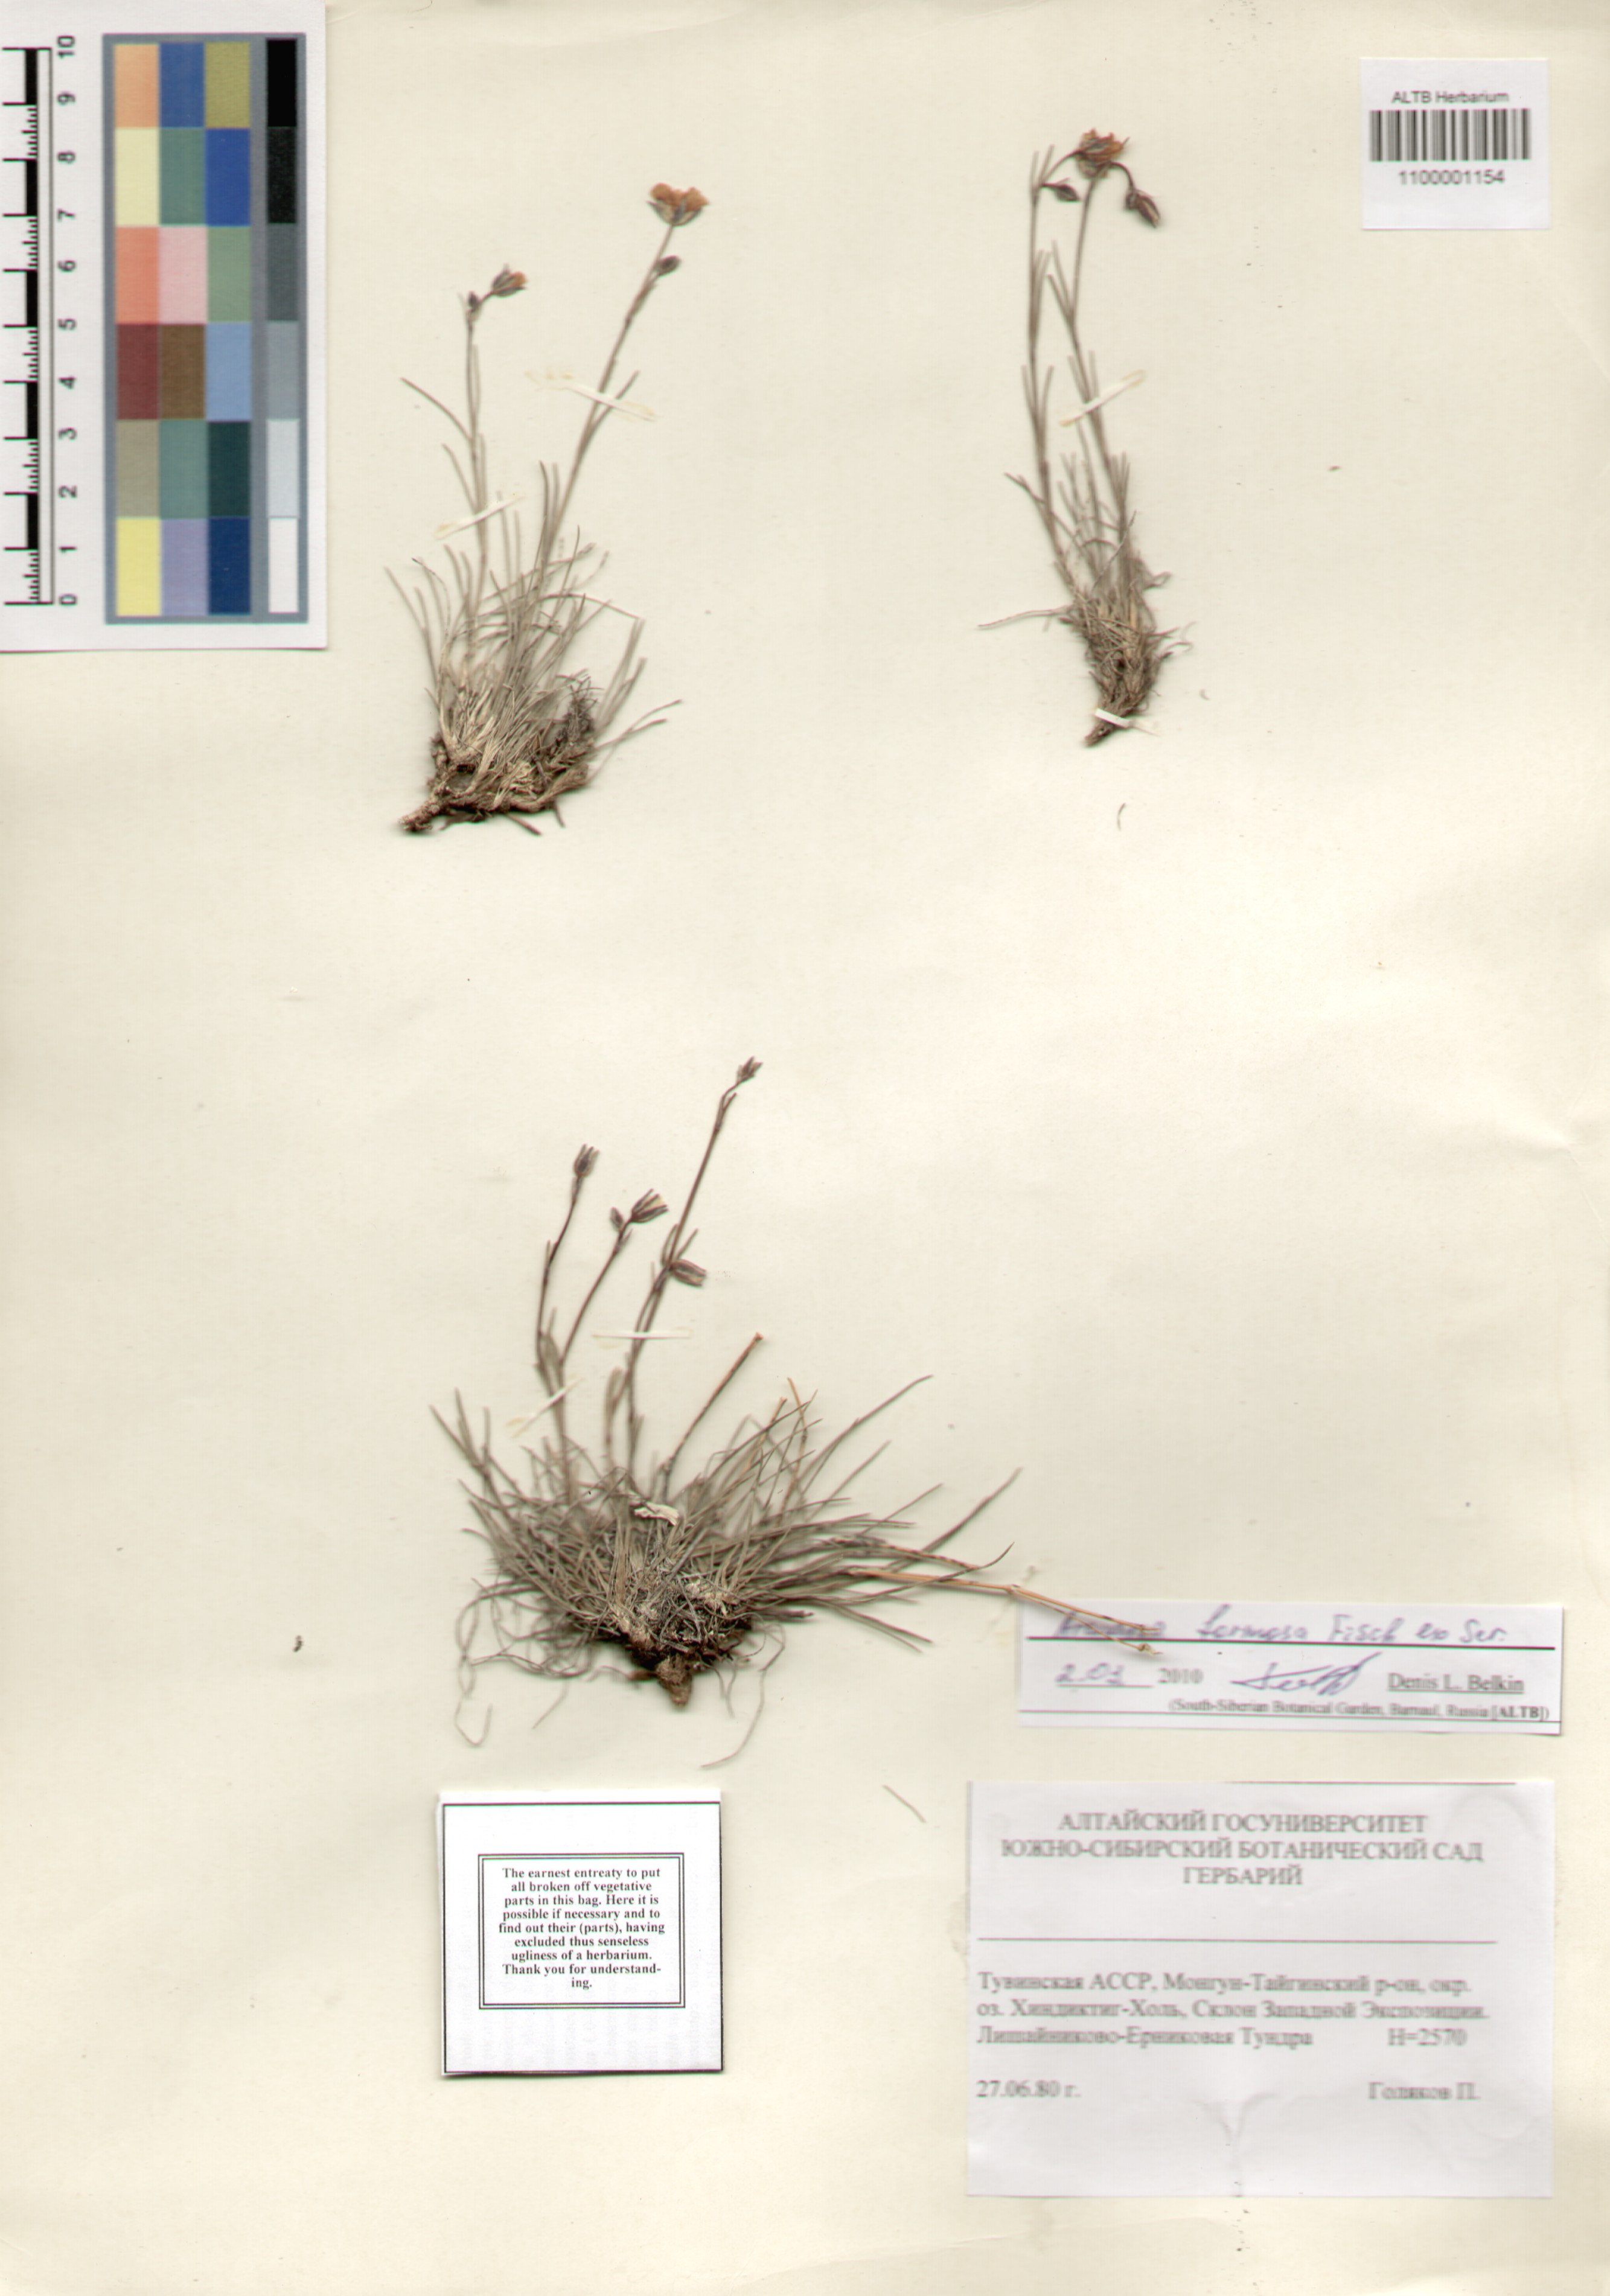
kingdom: Plantae
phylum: Tracheophyta
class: Magnoliopsida
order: Caryophyllales
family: Caryophyllaceae
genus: Eremogone
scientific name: Eremogone formosa
